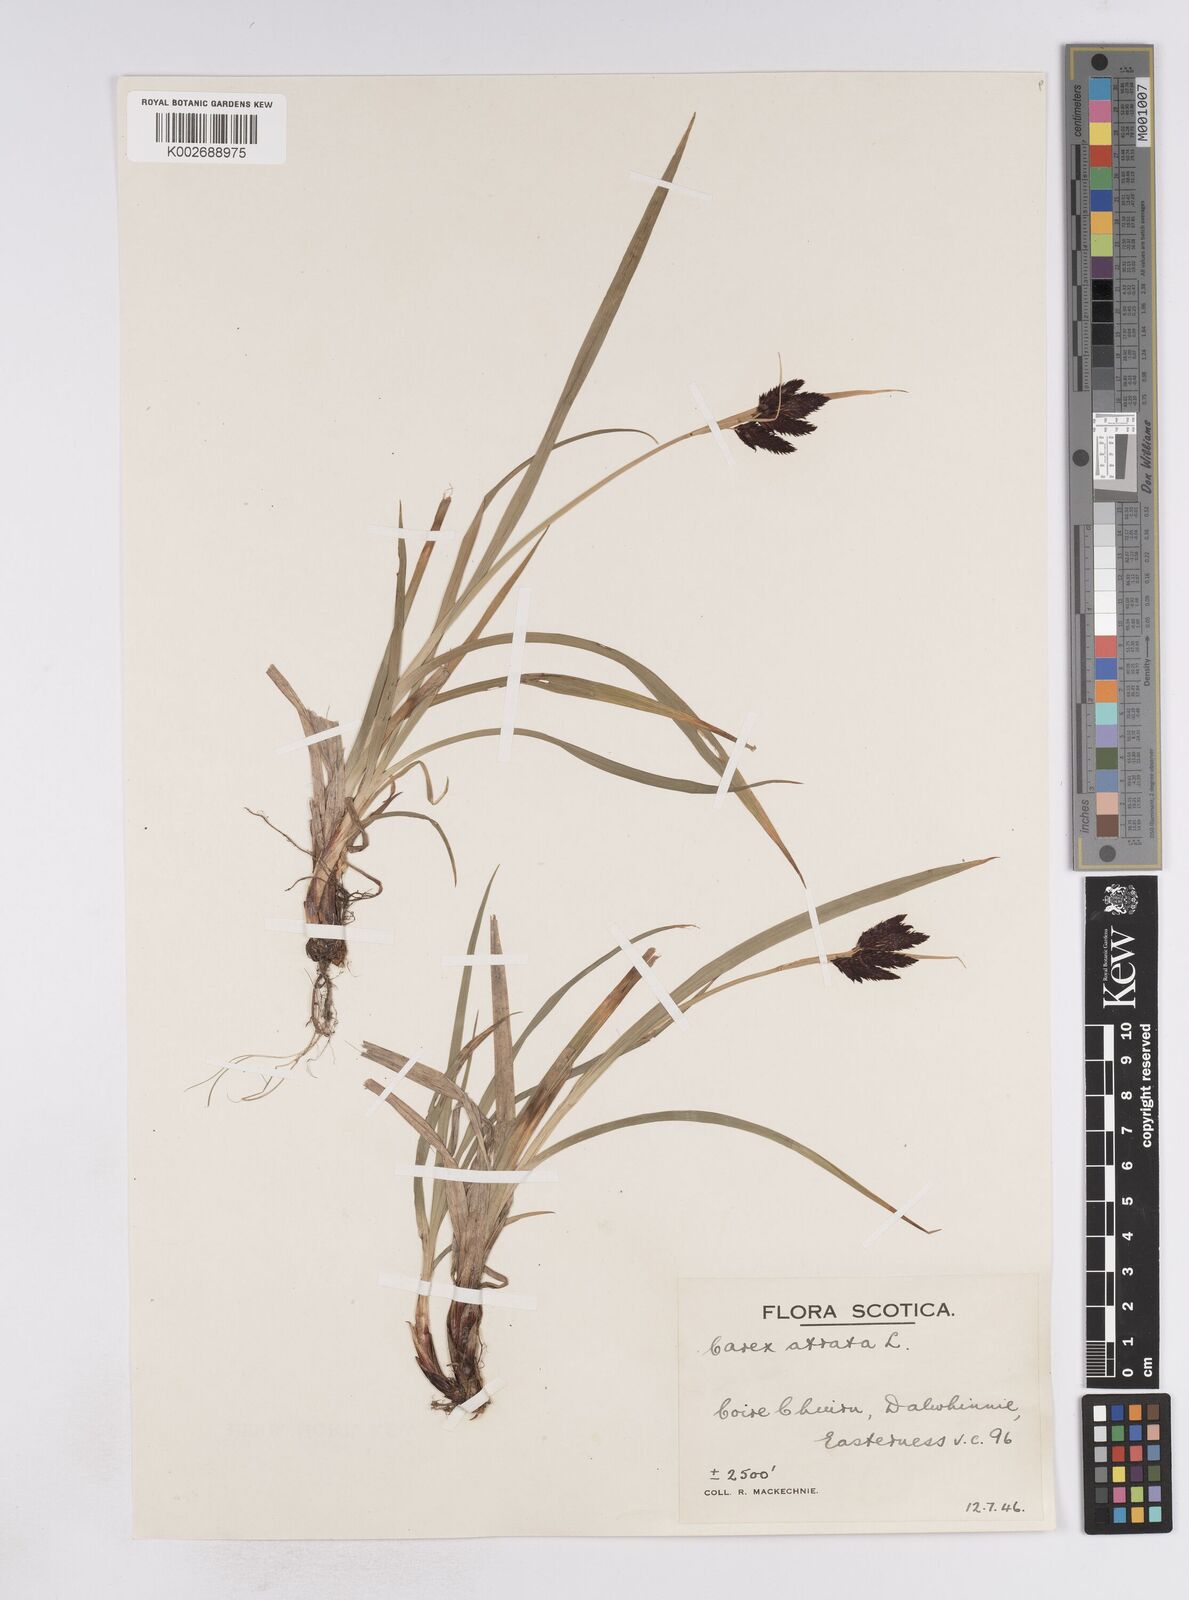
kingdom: Plantae
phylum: Tracheophyta
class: Liliopsida
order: Poales
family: Cyperaceae
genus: Carex
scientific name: Carex atrata
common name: Black alpine sedge
